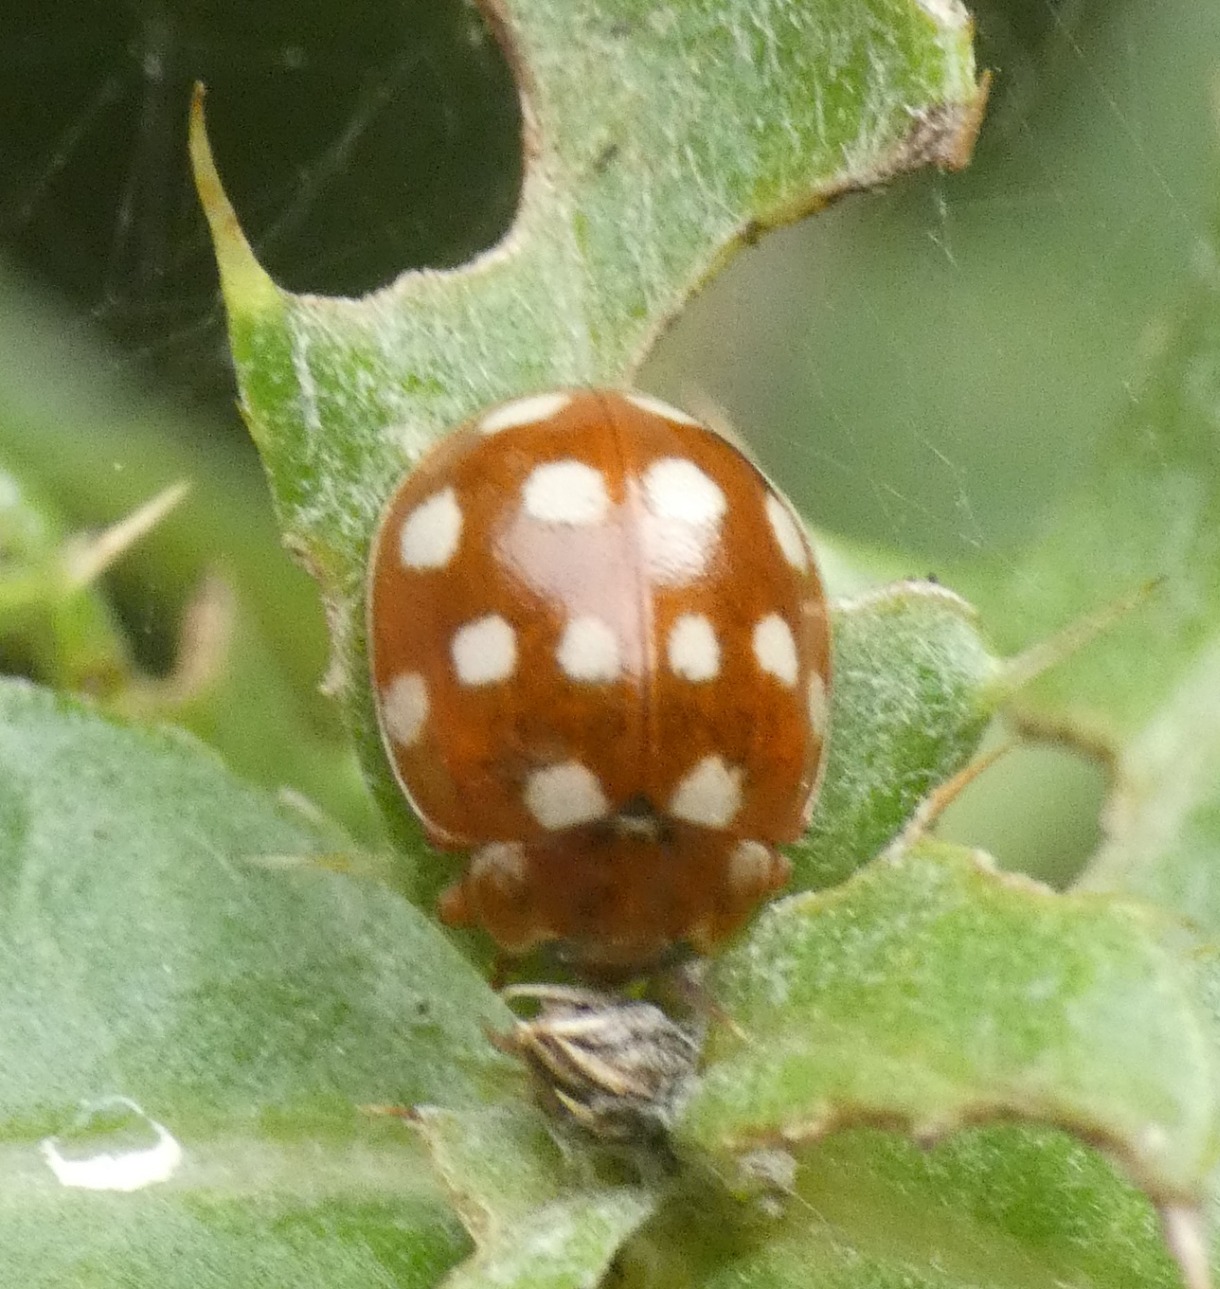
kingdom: Animalia
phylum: Arthropoda
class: Insecta
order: Coleoptera
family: Coccinellidae
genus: Calvia
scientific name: Calvia quatuordecimguttata
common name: Fjortenplettet mariehøne
